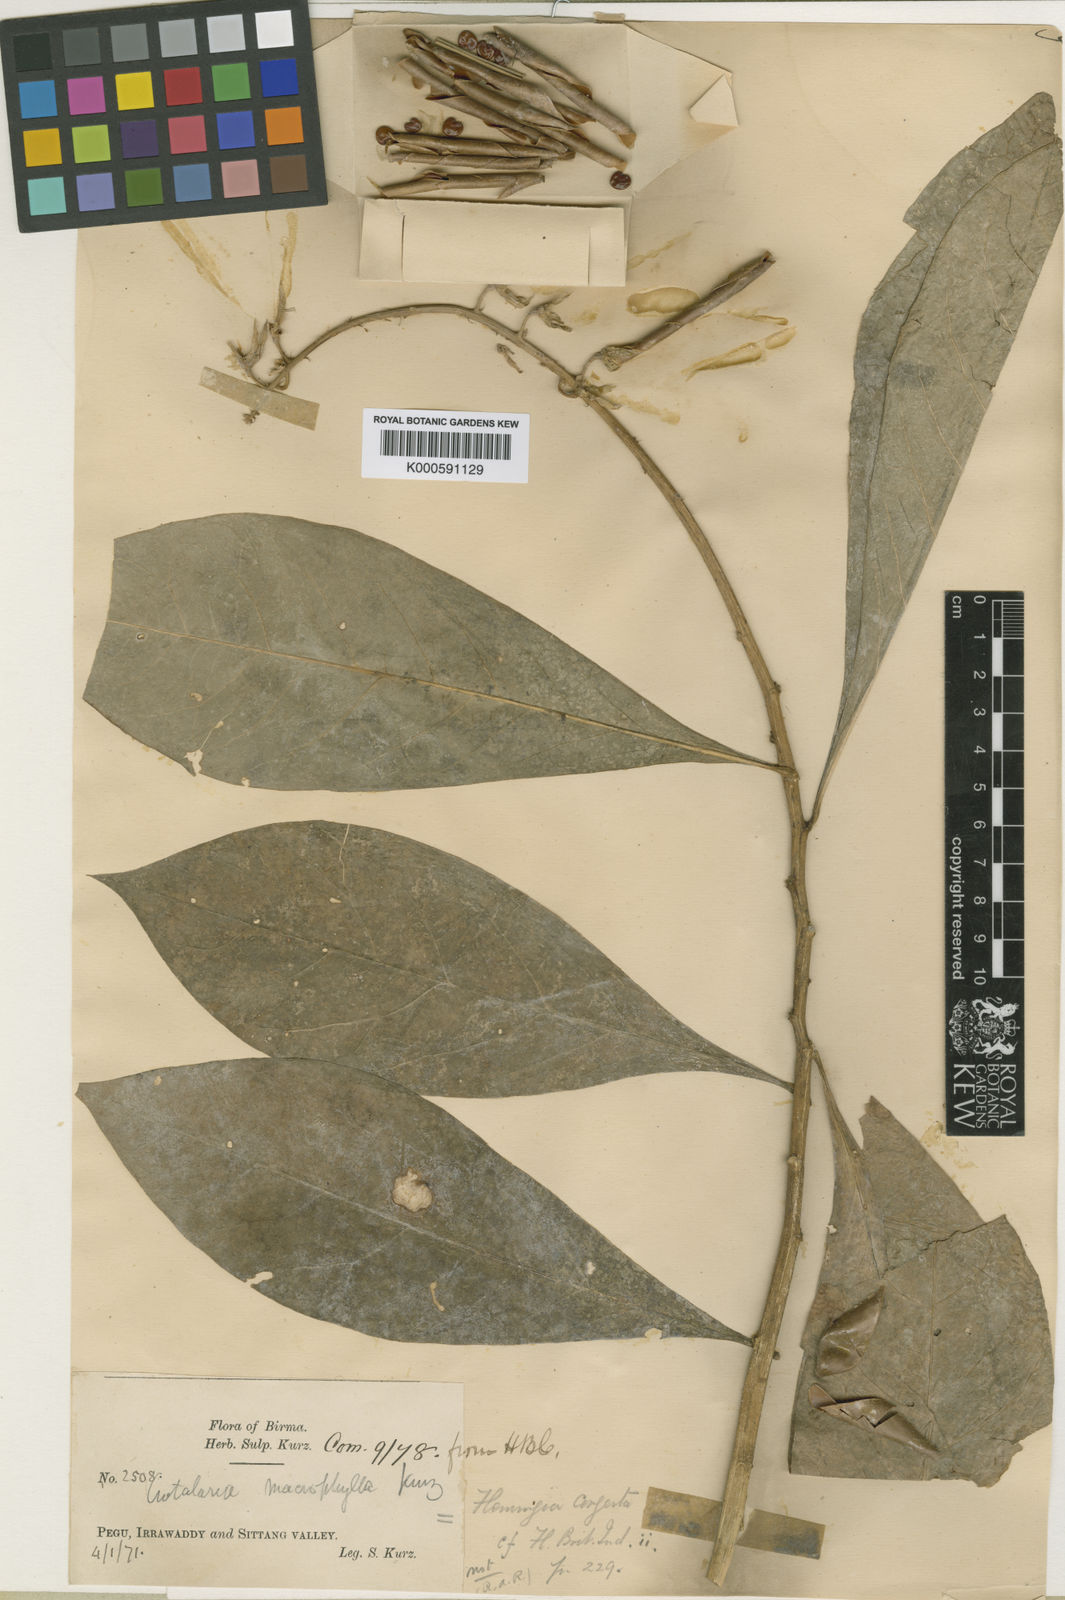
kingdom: Plantae
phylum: Tracheophyta
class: Magnoliopsida
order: Fabales
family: Fabaceae
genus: Crotalaria
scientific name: Crotalaria sulphizii
